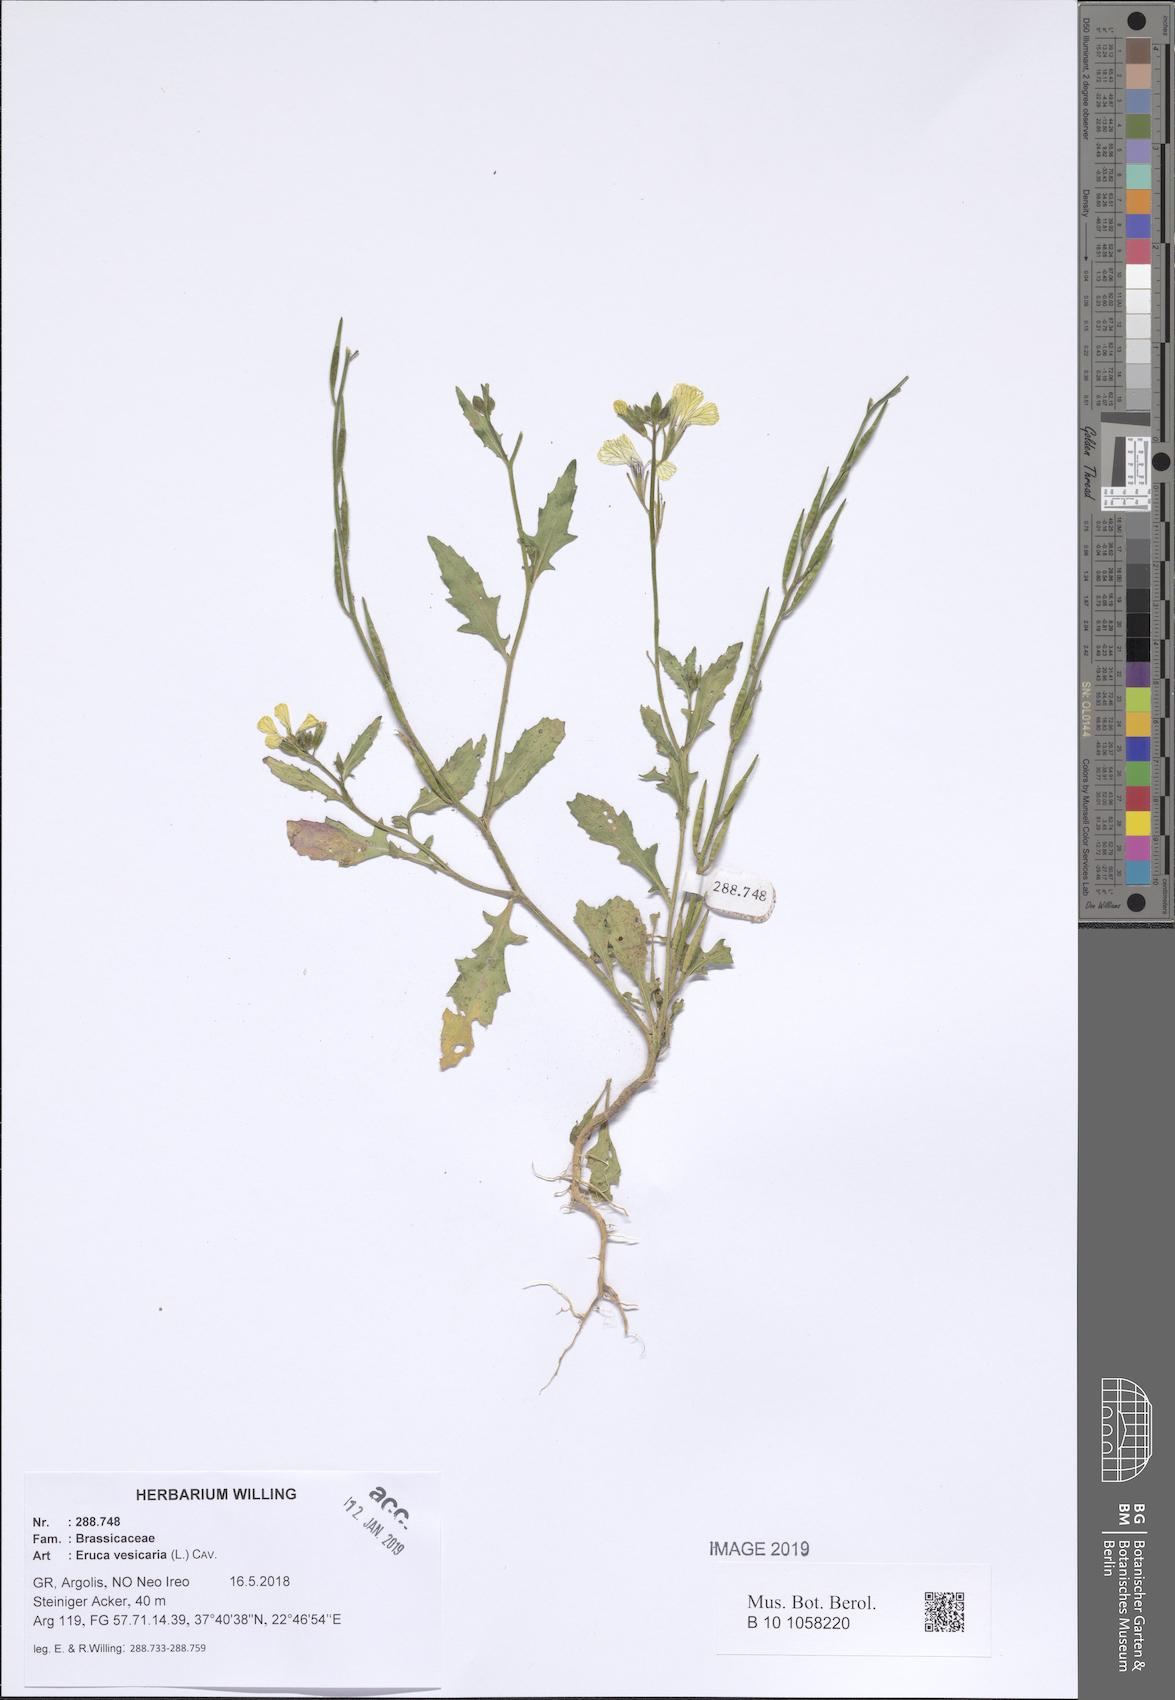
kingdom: Plantae
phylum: Tracheophyta
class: Magnoliopsida
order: Brassicales
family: Brassicaceae
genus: Eruca
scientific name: Eruca vesicaria
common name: Garden rocket
